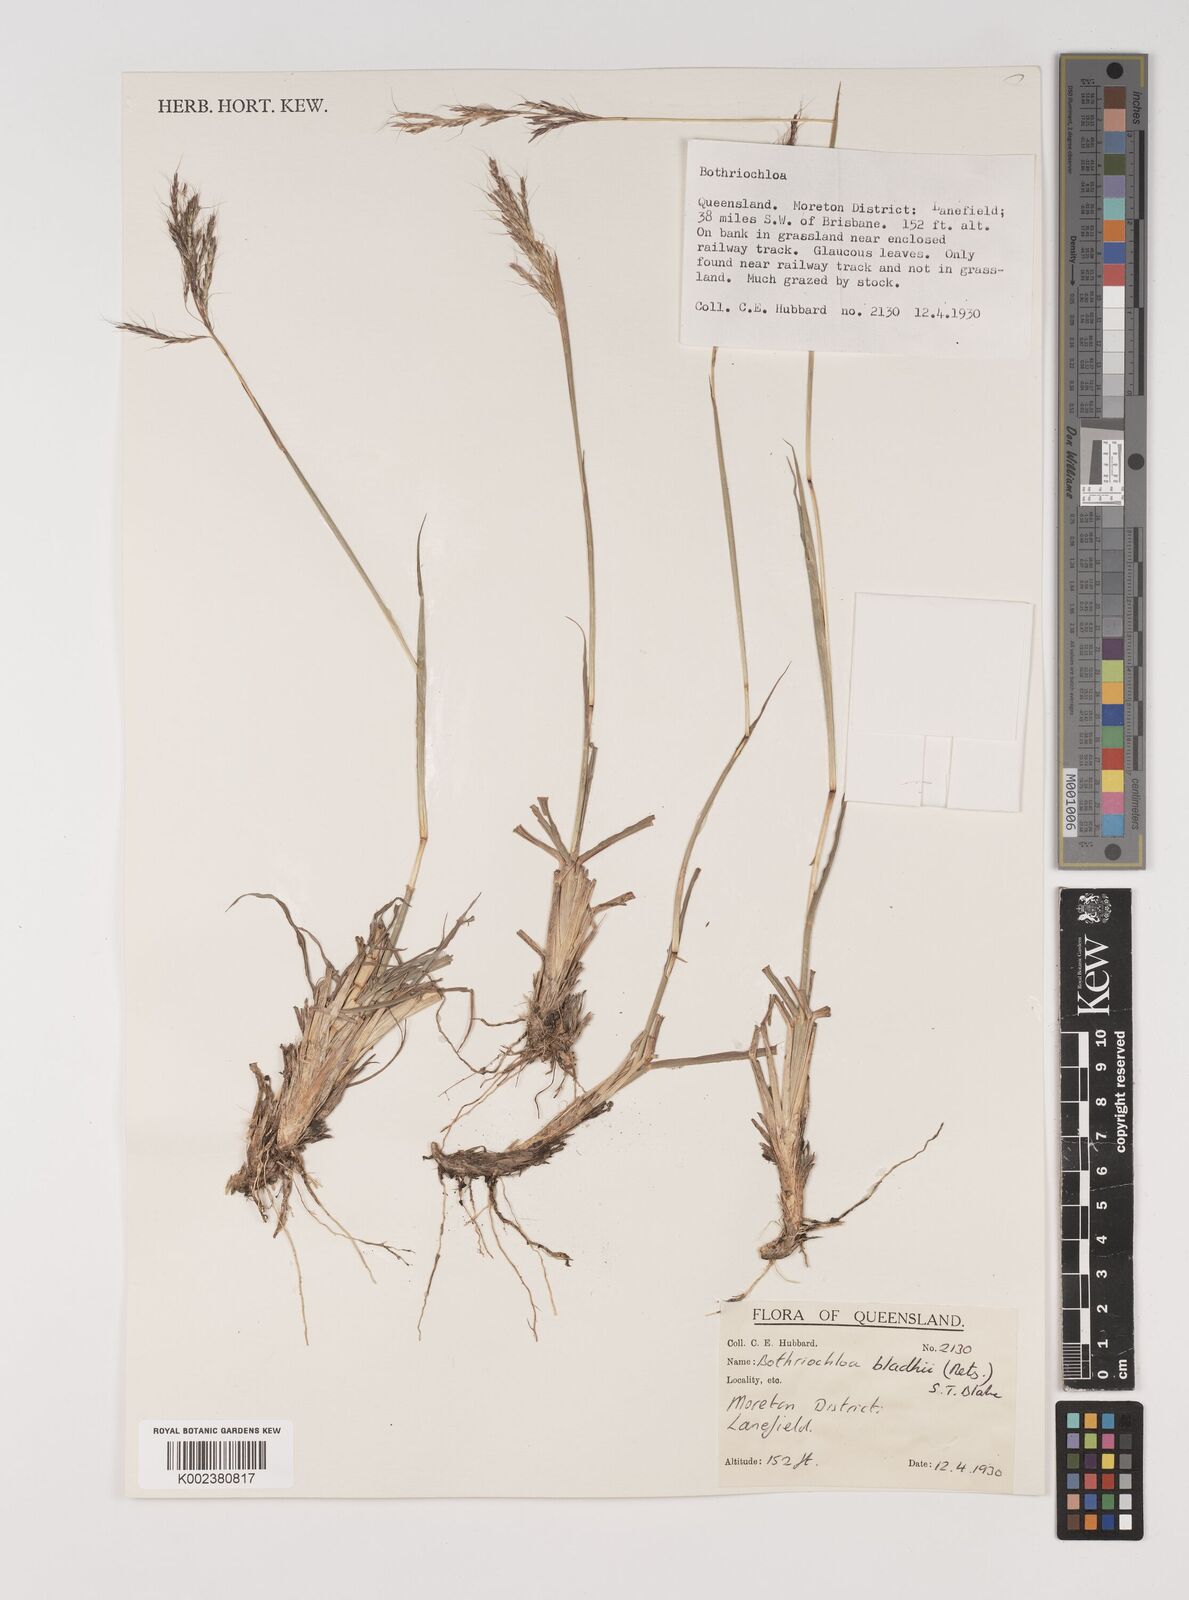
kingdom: Plantae
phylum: Tracheophyta
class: Liliopsida
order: Poales
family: Poaceae
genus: Bothriochloa
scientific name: Bothriochloa bladhii
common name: Caucasian bluestem
